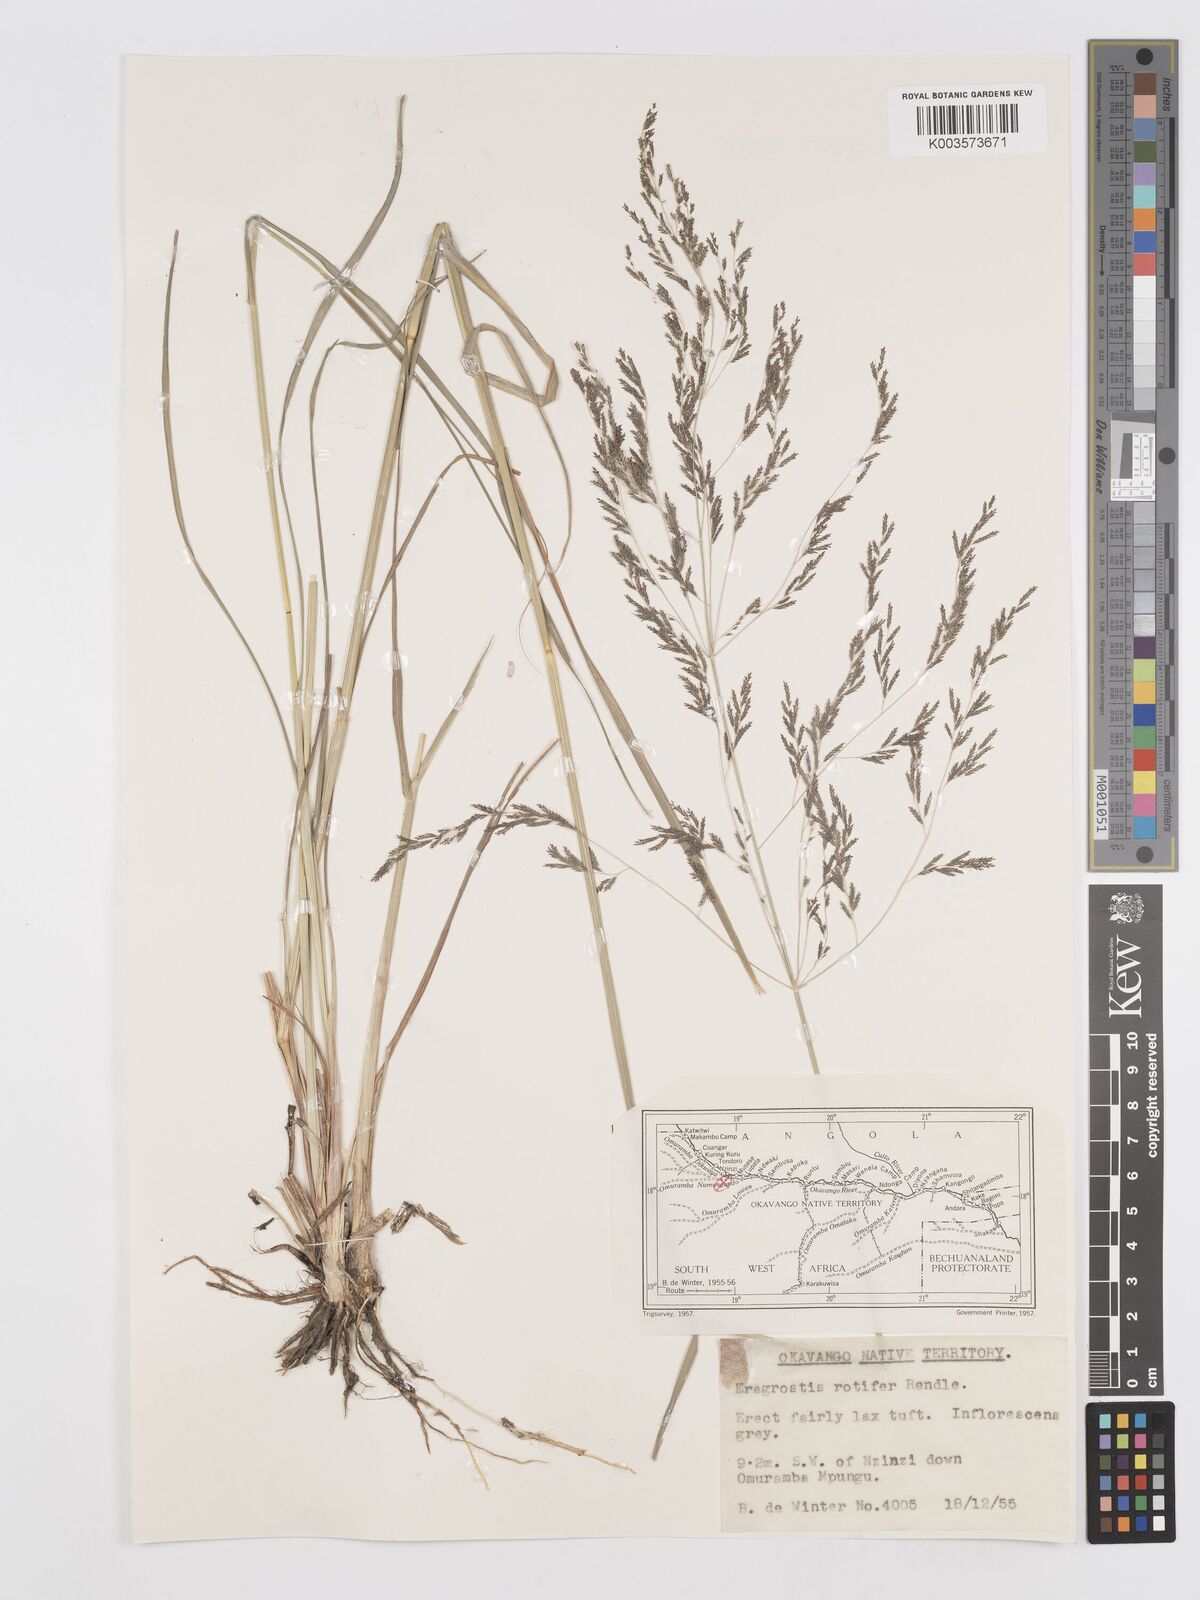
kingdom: Plantae
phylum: Tracheophyta
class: Liliopsida
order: Poales
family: Poaceae
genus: Eragrostis
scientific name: Eragrostis rotifer
